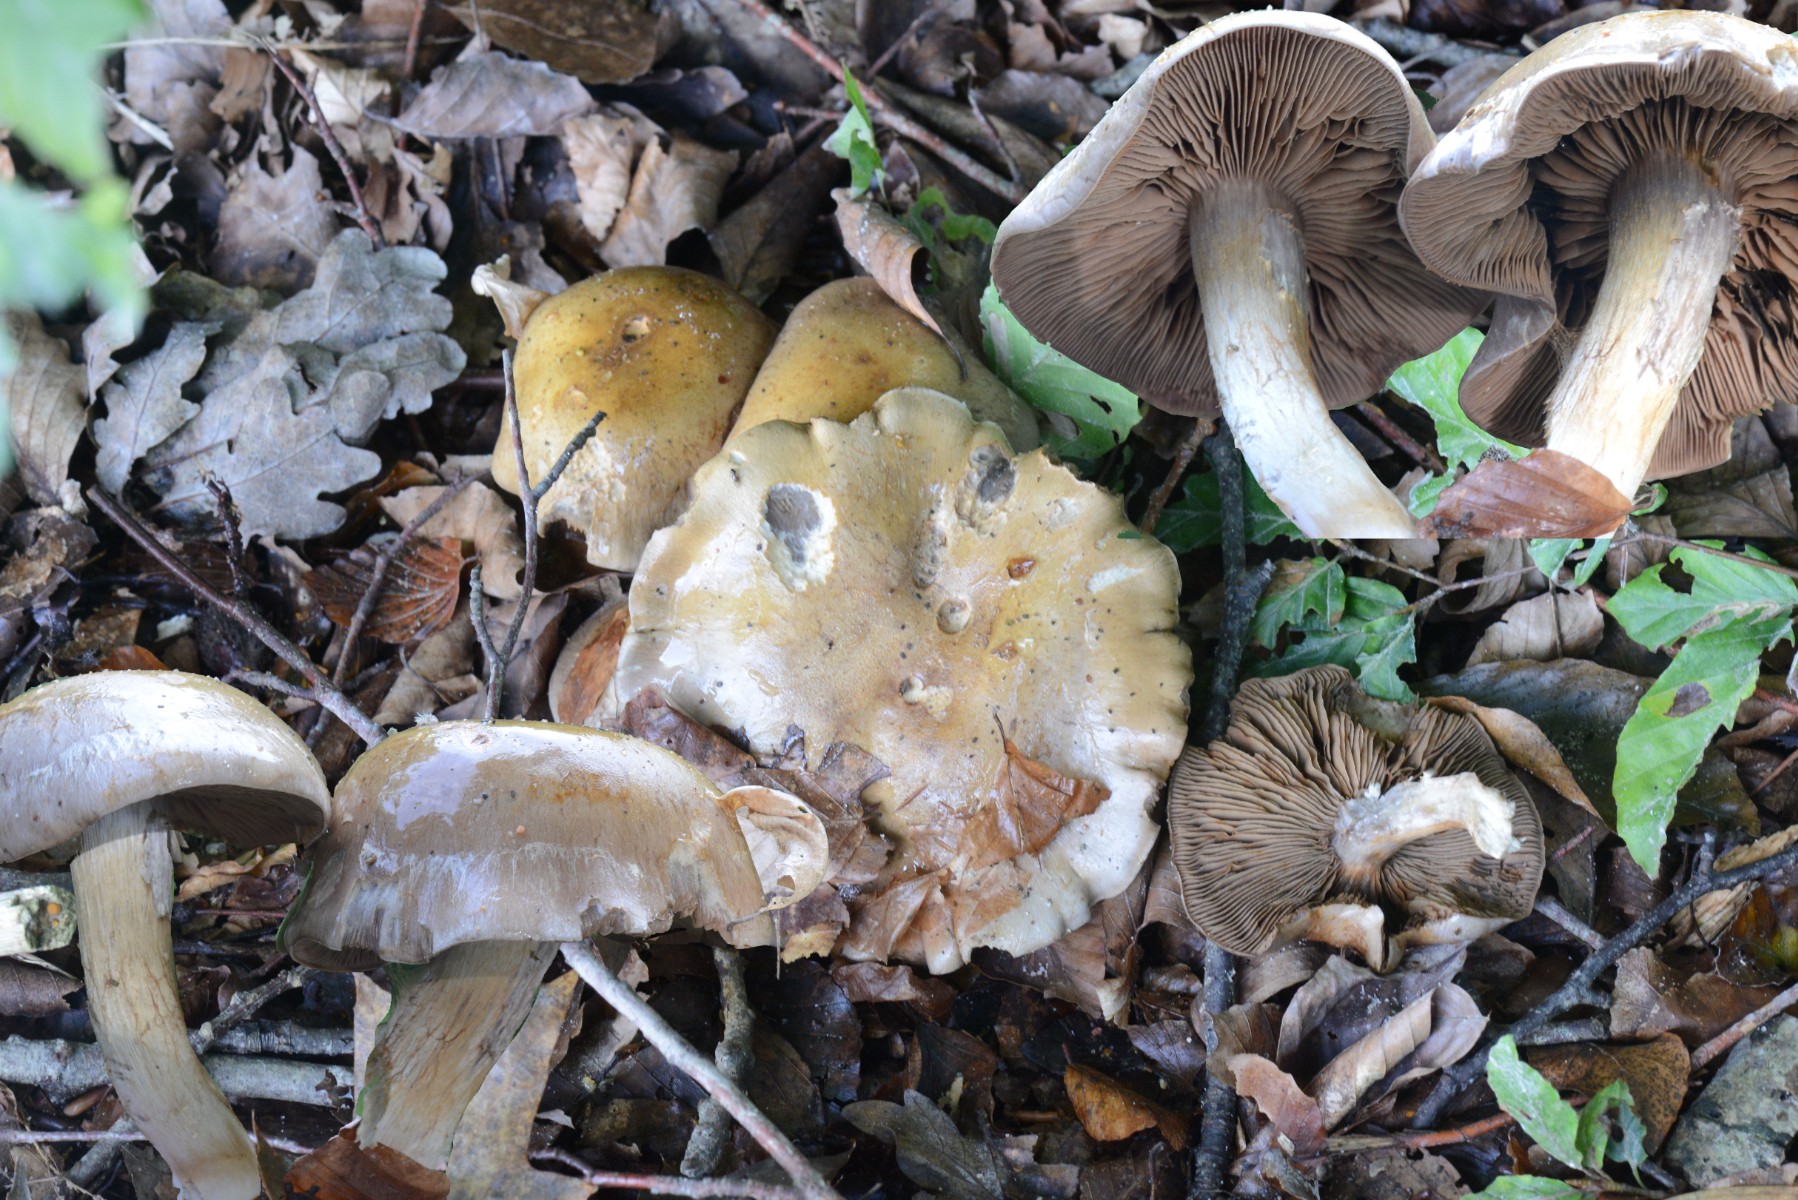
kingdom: Fungi
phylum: Basidiomycota
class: Agaricomycetes
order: Agaricales
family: Cortinariaceae
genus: Cortinarius
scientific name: Cortinarius
